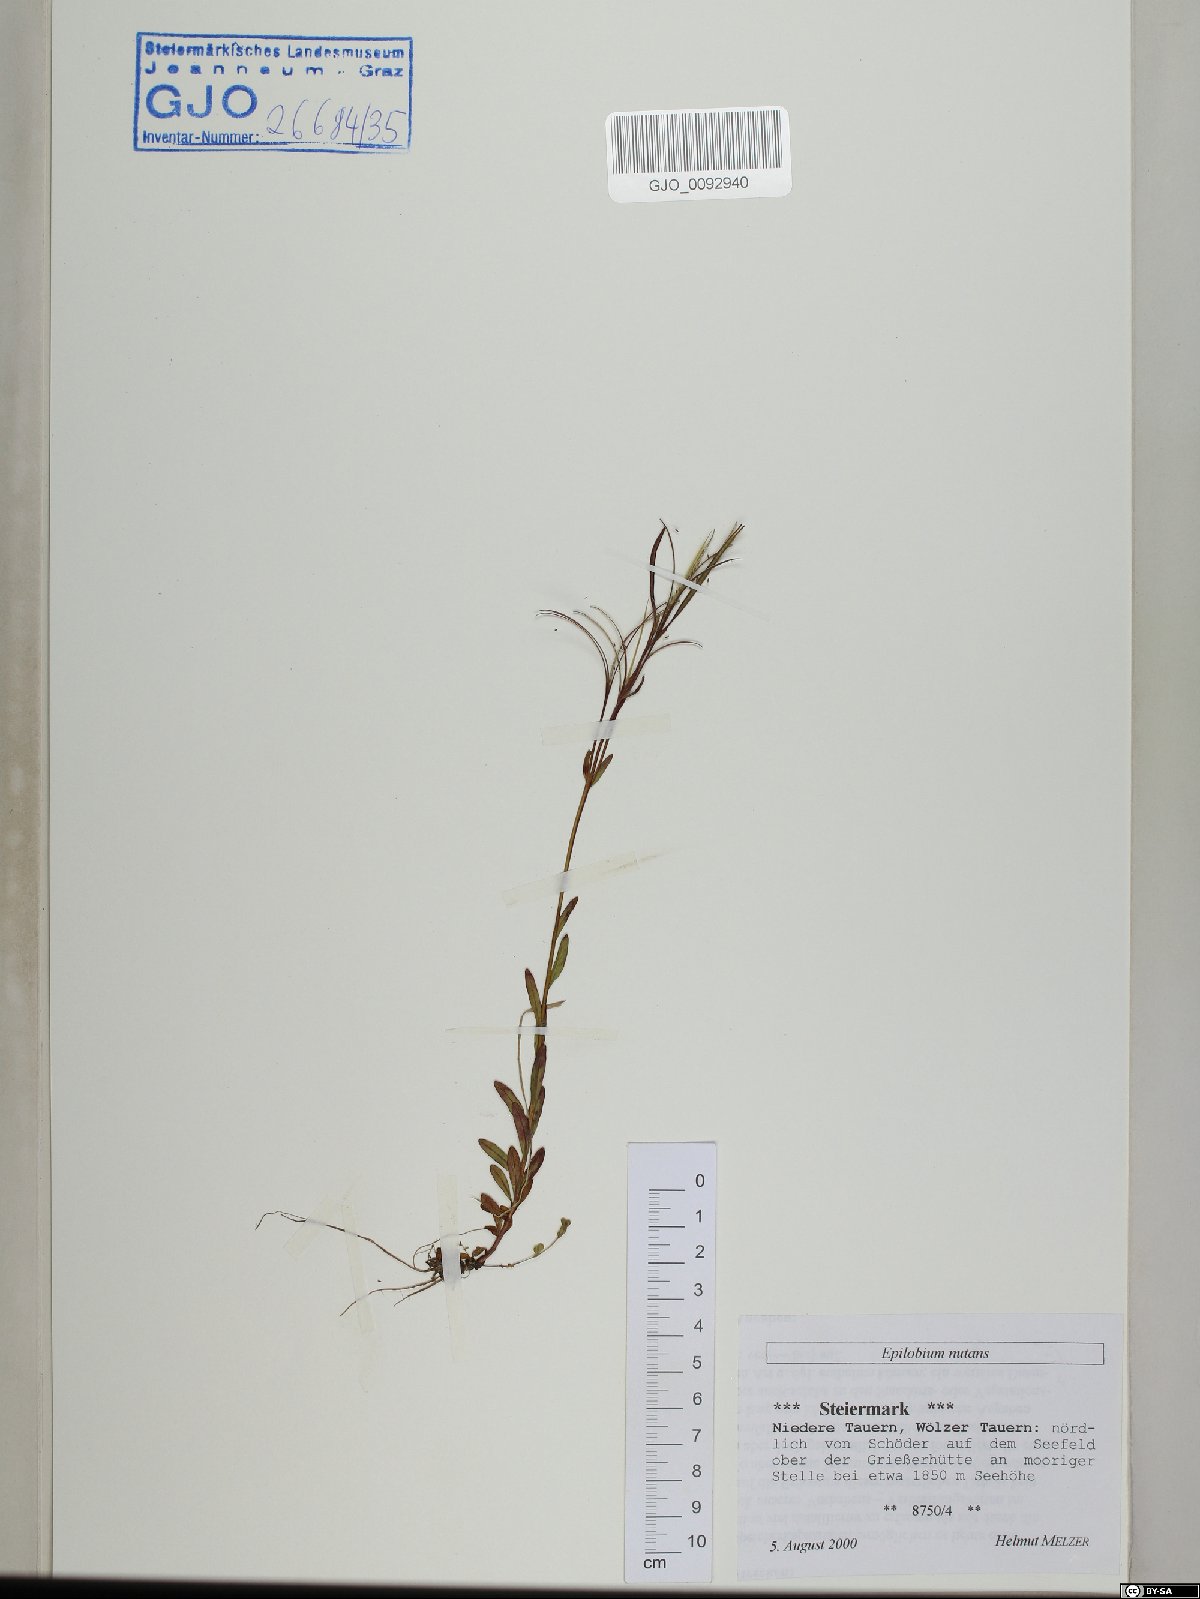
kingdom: Plantae
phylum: Tracheophyta
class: Magnoliopsida
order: Myrtales
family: Onagraceae
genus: Epilobium
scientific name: Epilobium nutans
